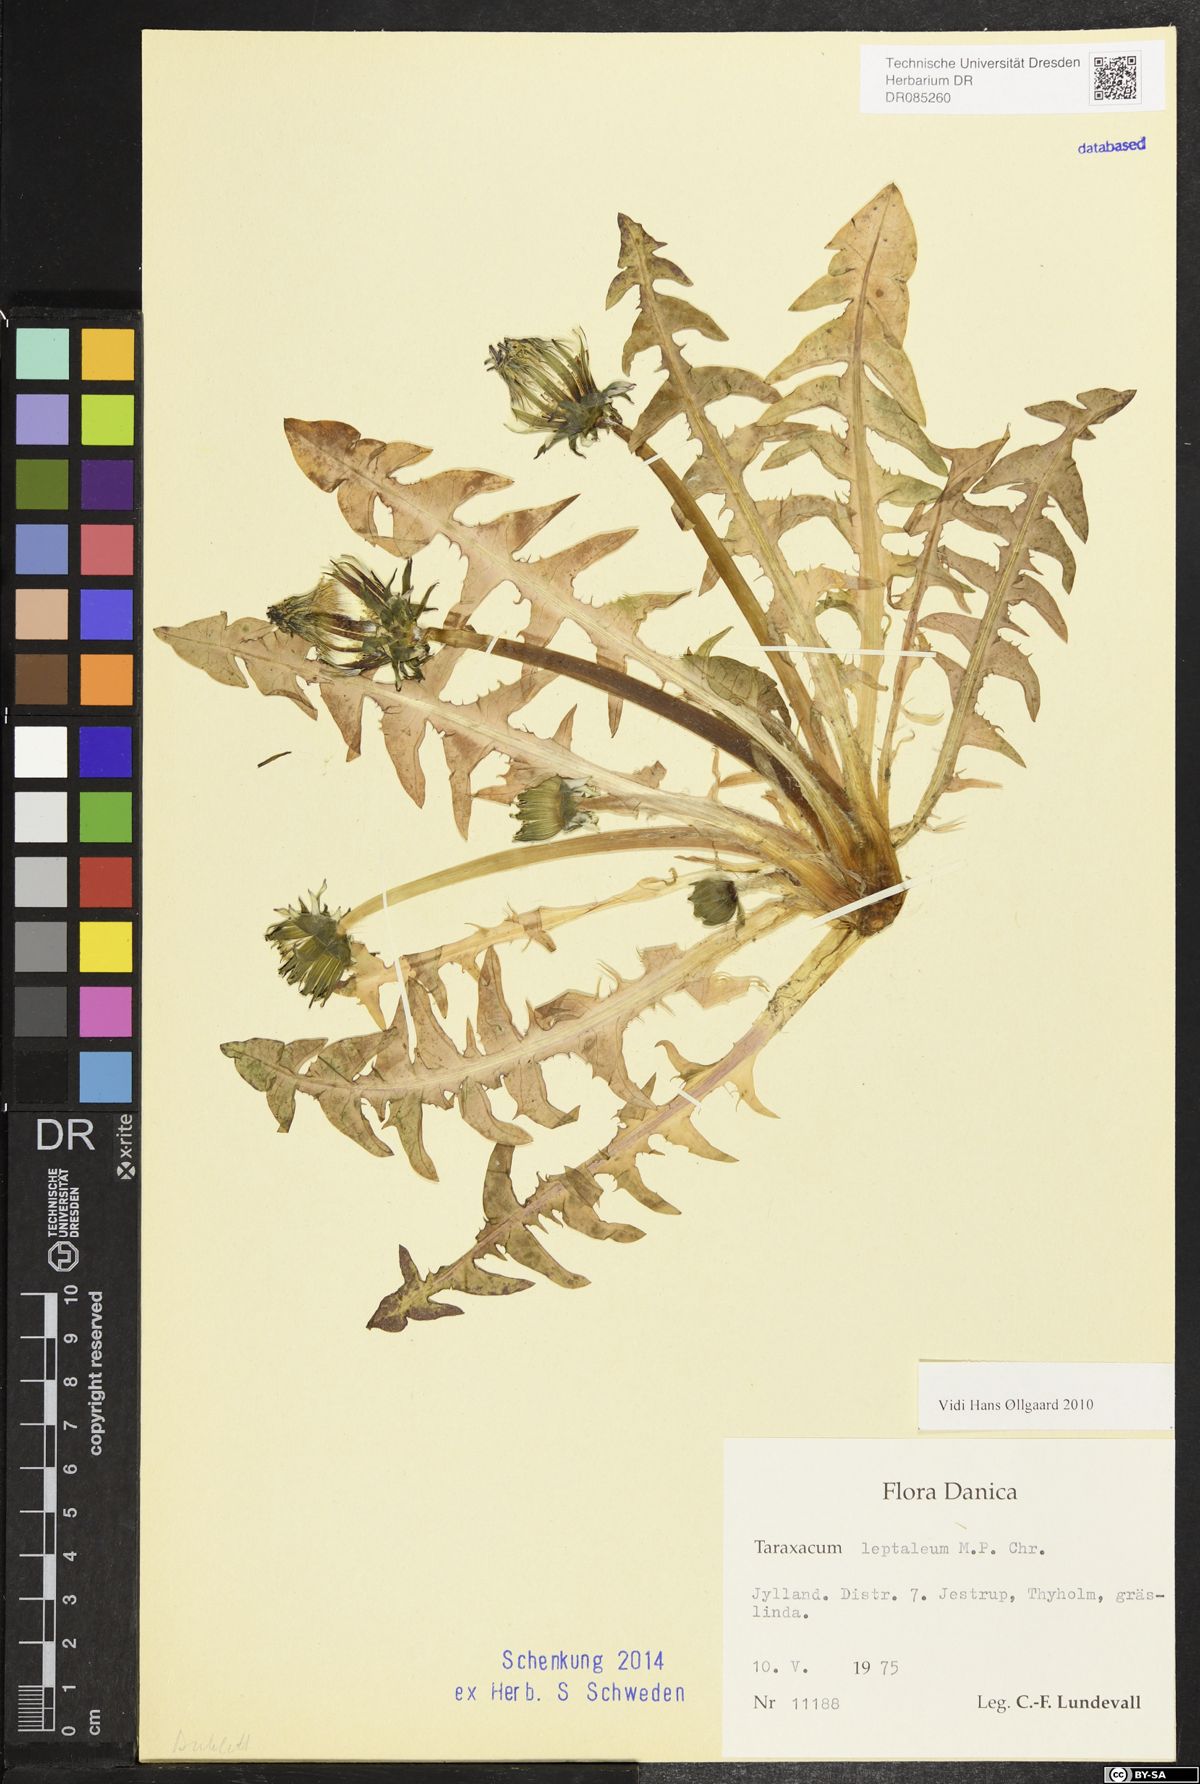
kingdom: Plantae
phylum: Tracheophyta
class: Magnoliopsida
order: Asterales
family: Asteraceae
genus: Taraxacum
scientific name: Taraxacum leptaleum
